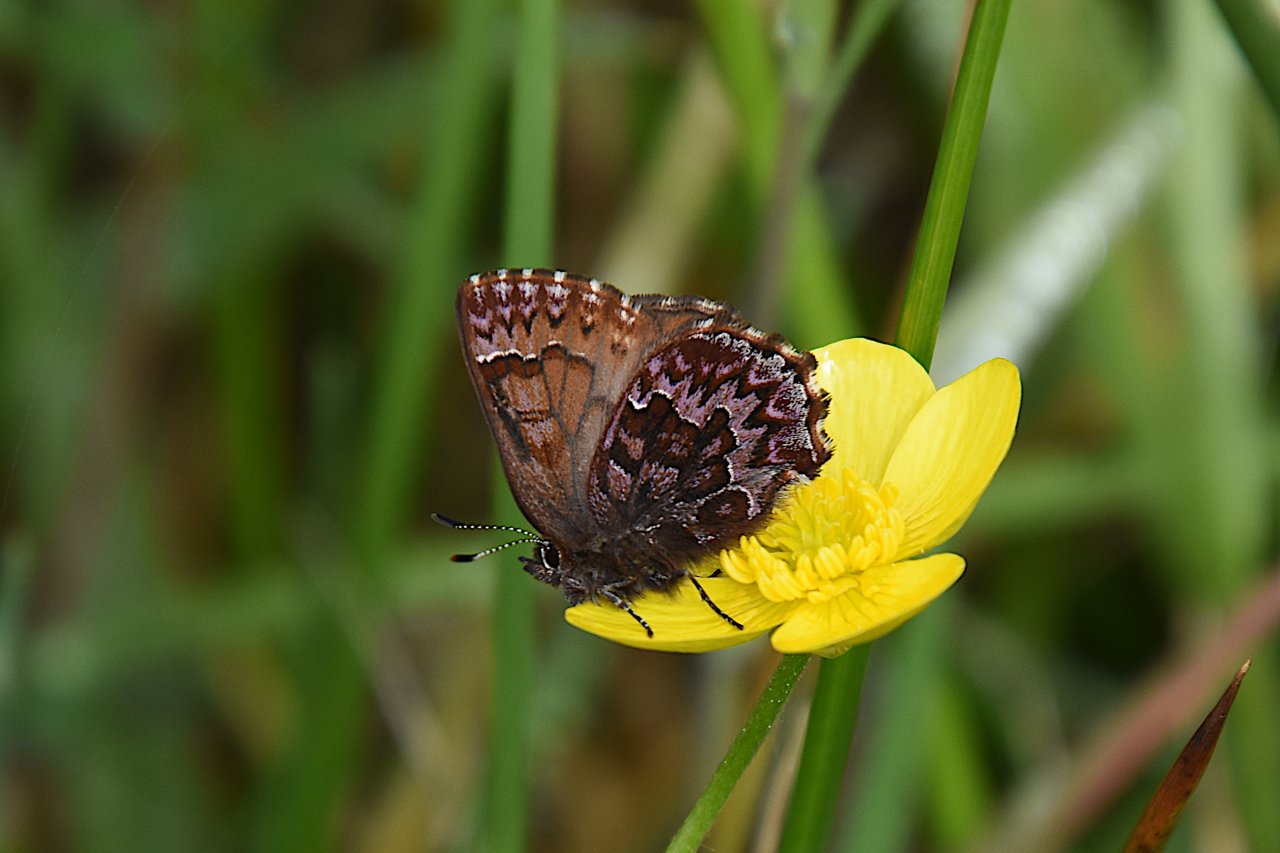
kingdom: Animalia
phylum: Arthropoda
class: Insecta
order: Lepidoptera
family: Lycaenidae
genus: Incisalia
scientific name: Incisalia eryphon
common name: Western Pine Elfin
